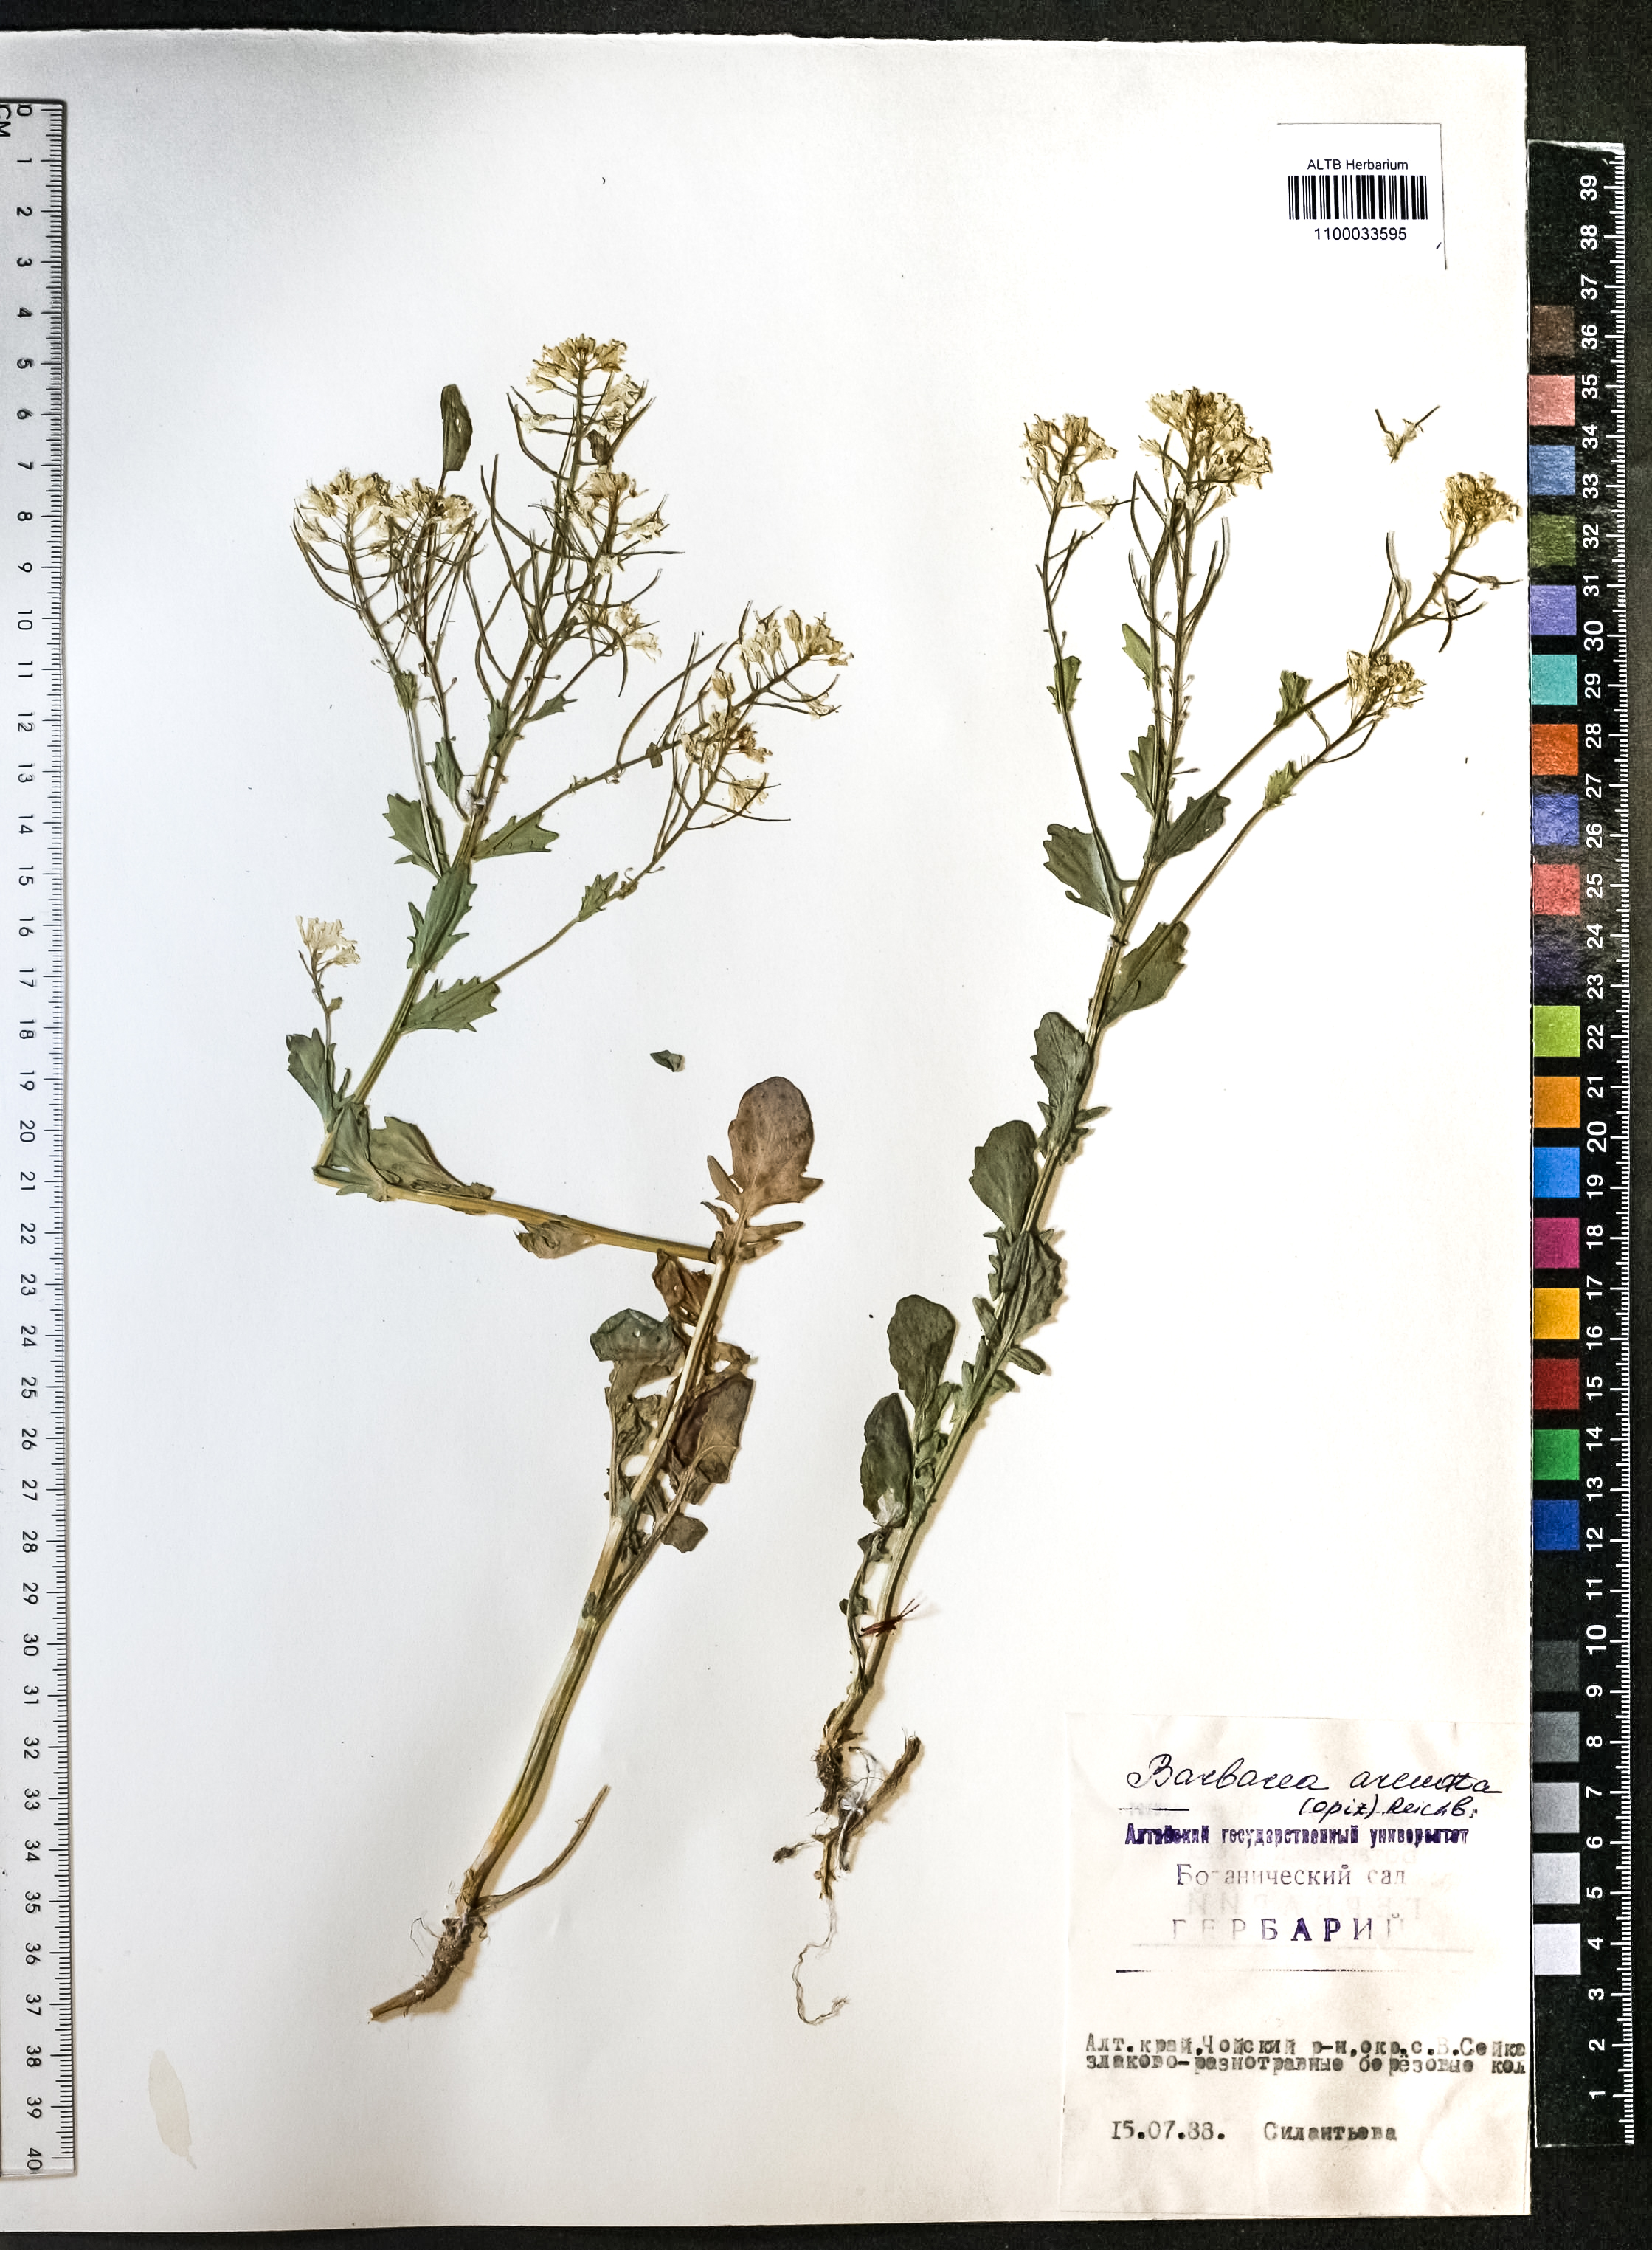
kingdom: Plantae
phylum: Tracheophyta
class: Magnoliopsida
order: Brassicales
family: Brassicaceae
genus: Barbarea
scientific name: Barbarea vulgaris
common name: Cressy-greens
